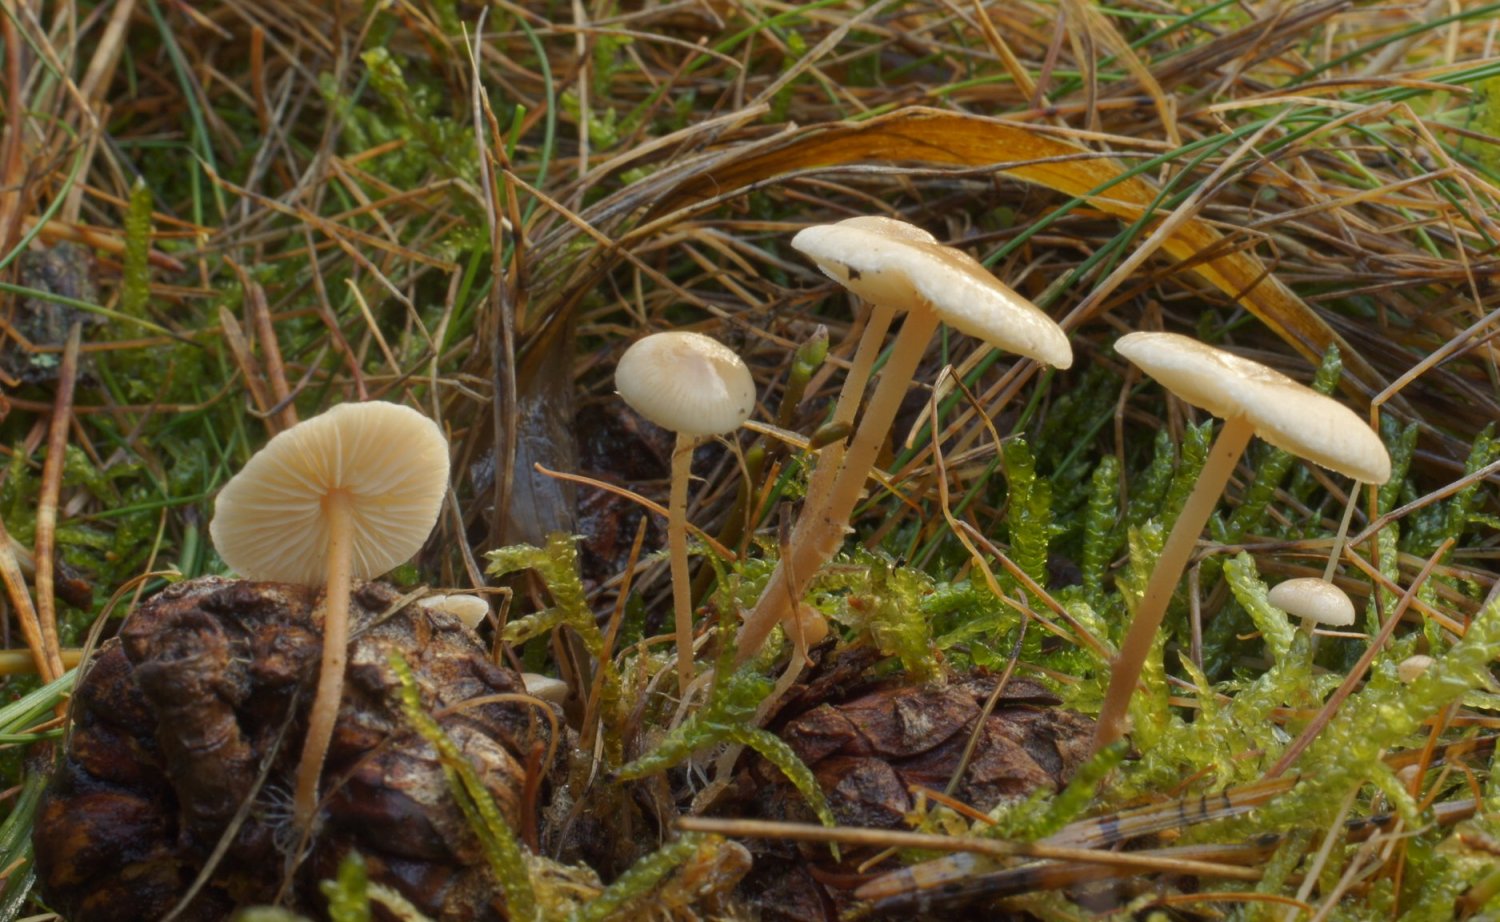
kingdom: Fungi
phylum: Basidiomycota
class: Agaricomycetes
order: Agaricales
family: Physalacriaceae
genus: Strobilurus
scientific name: Strobilurus tenacellus
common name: sommer-koglehat
